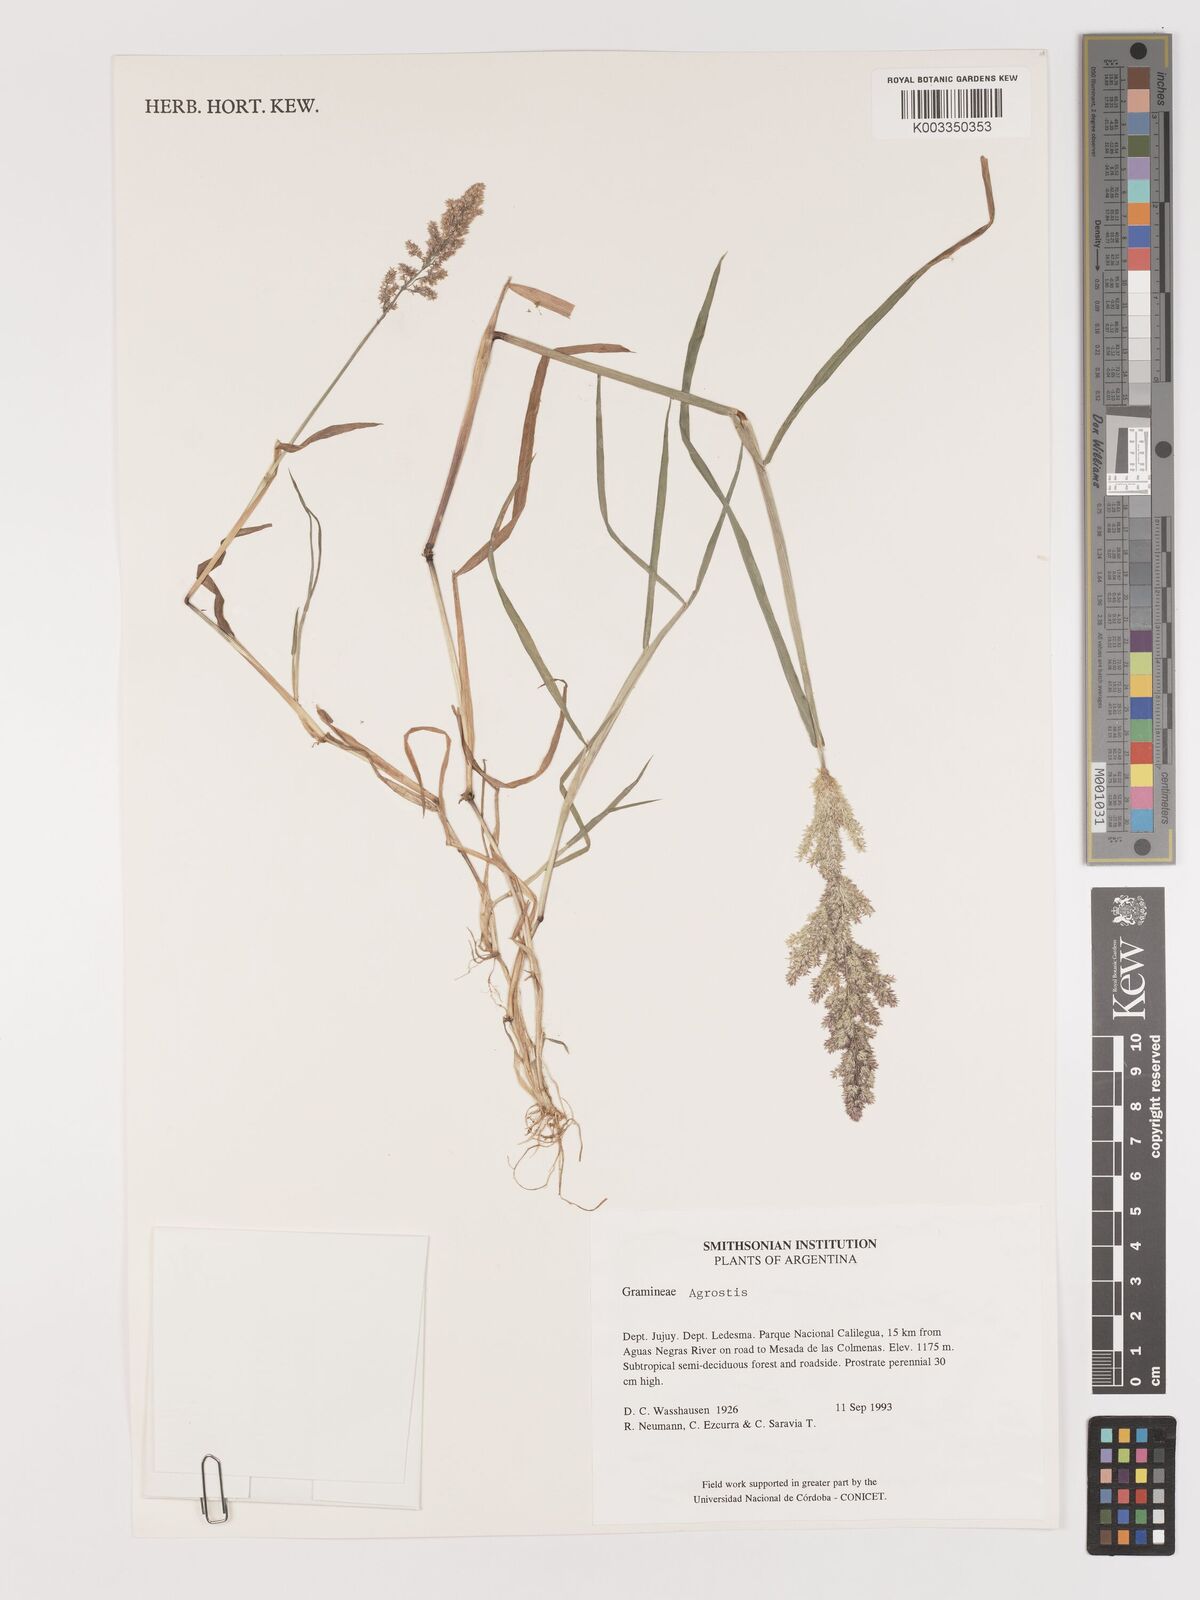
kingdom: Plantae
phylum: Tracheophyta
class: Liliopsida
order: Poales
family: Poaceae
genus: Agrostis
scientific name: Agrostis
